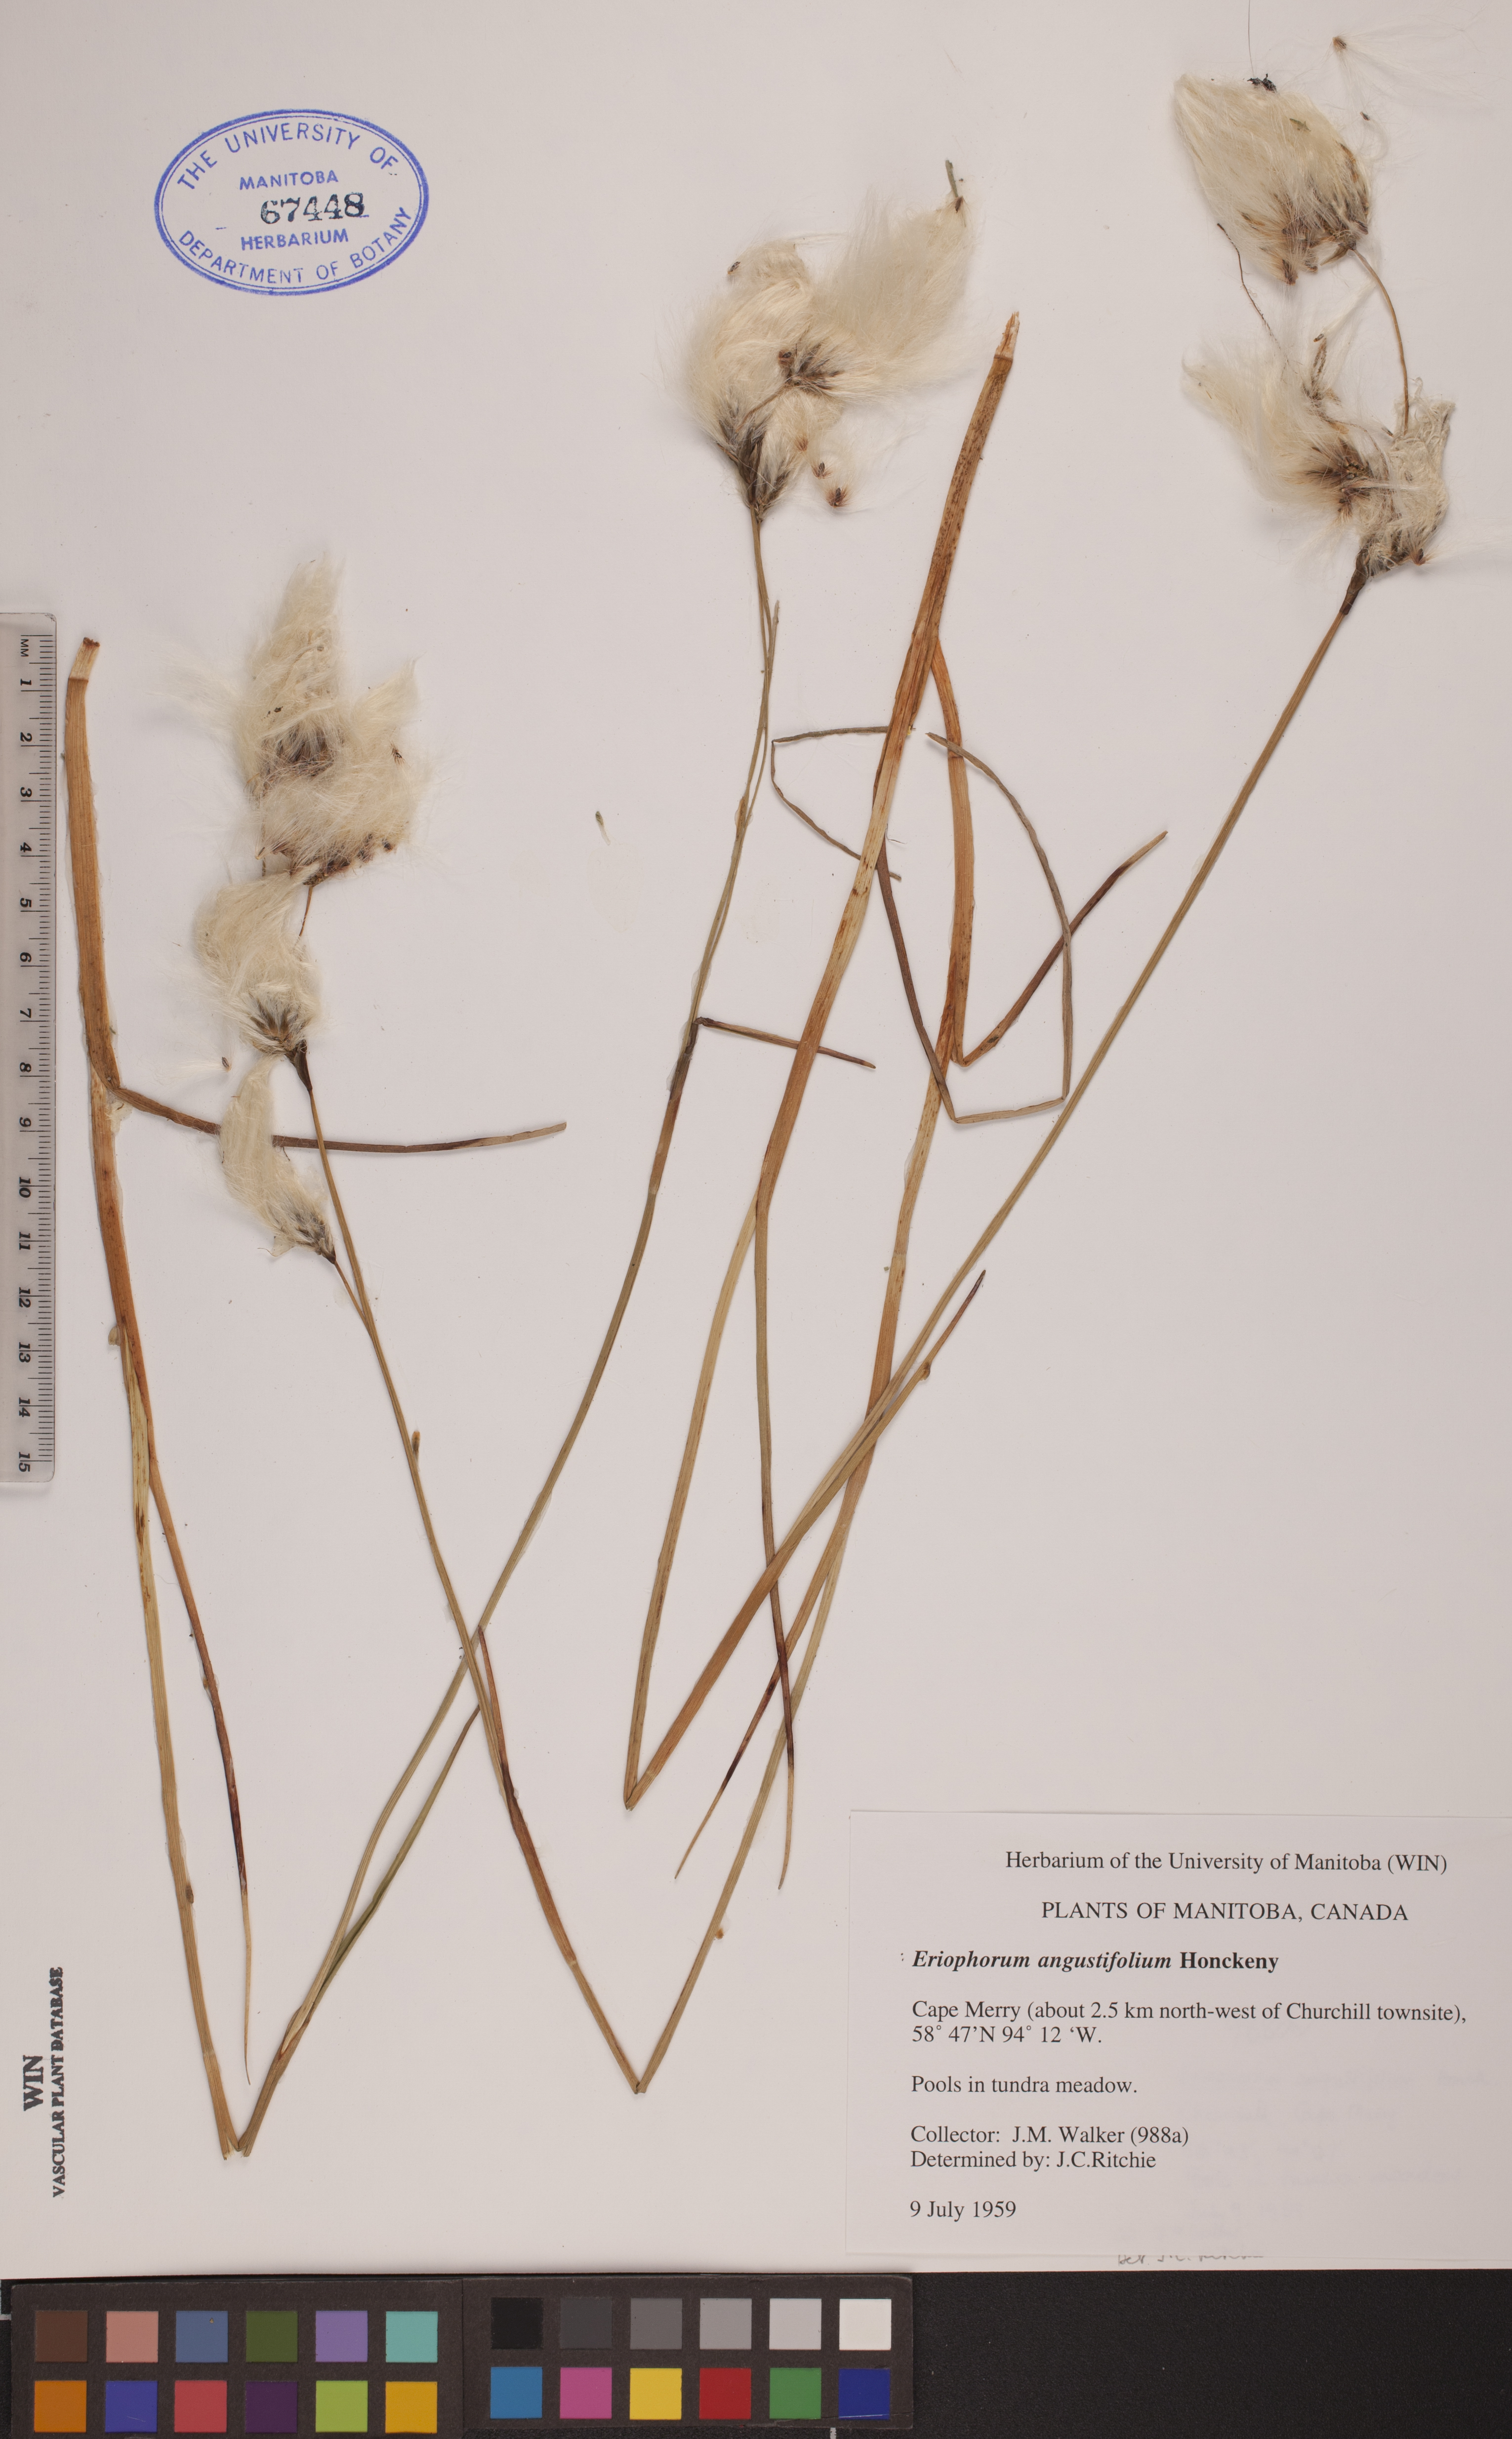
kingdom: Plantae
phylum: Tracheophyta
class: Liliopsida
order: Poales
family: Cyperaceae
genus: Eriophorum
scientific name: Eriophorum angustifolium
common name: Common cottongrass
